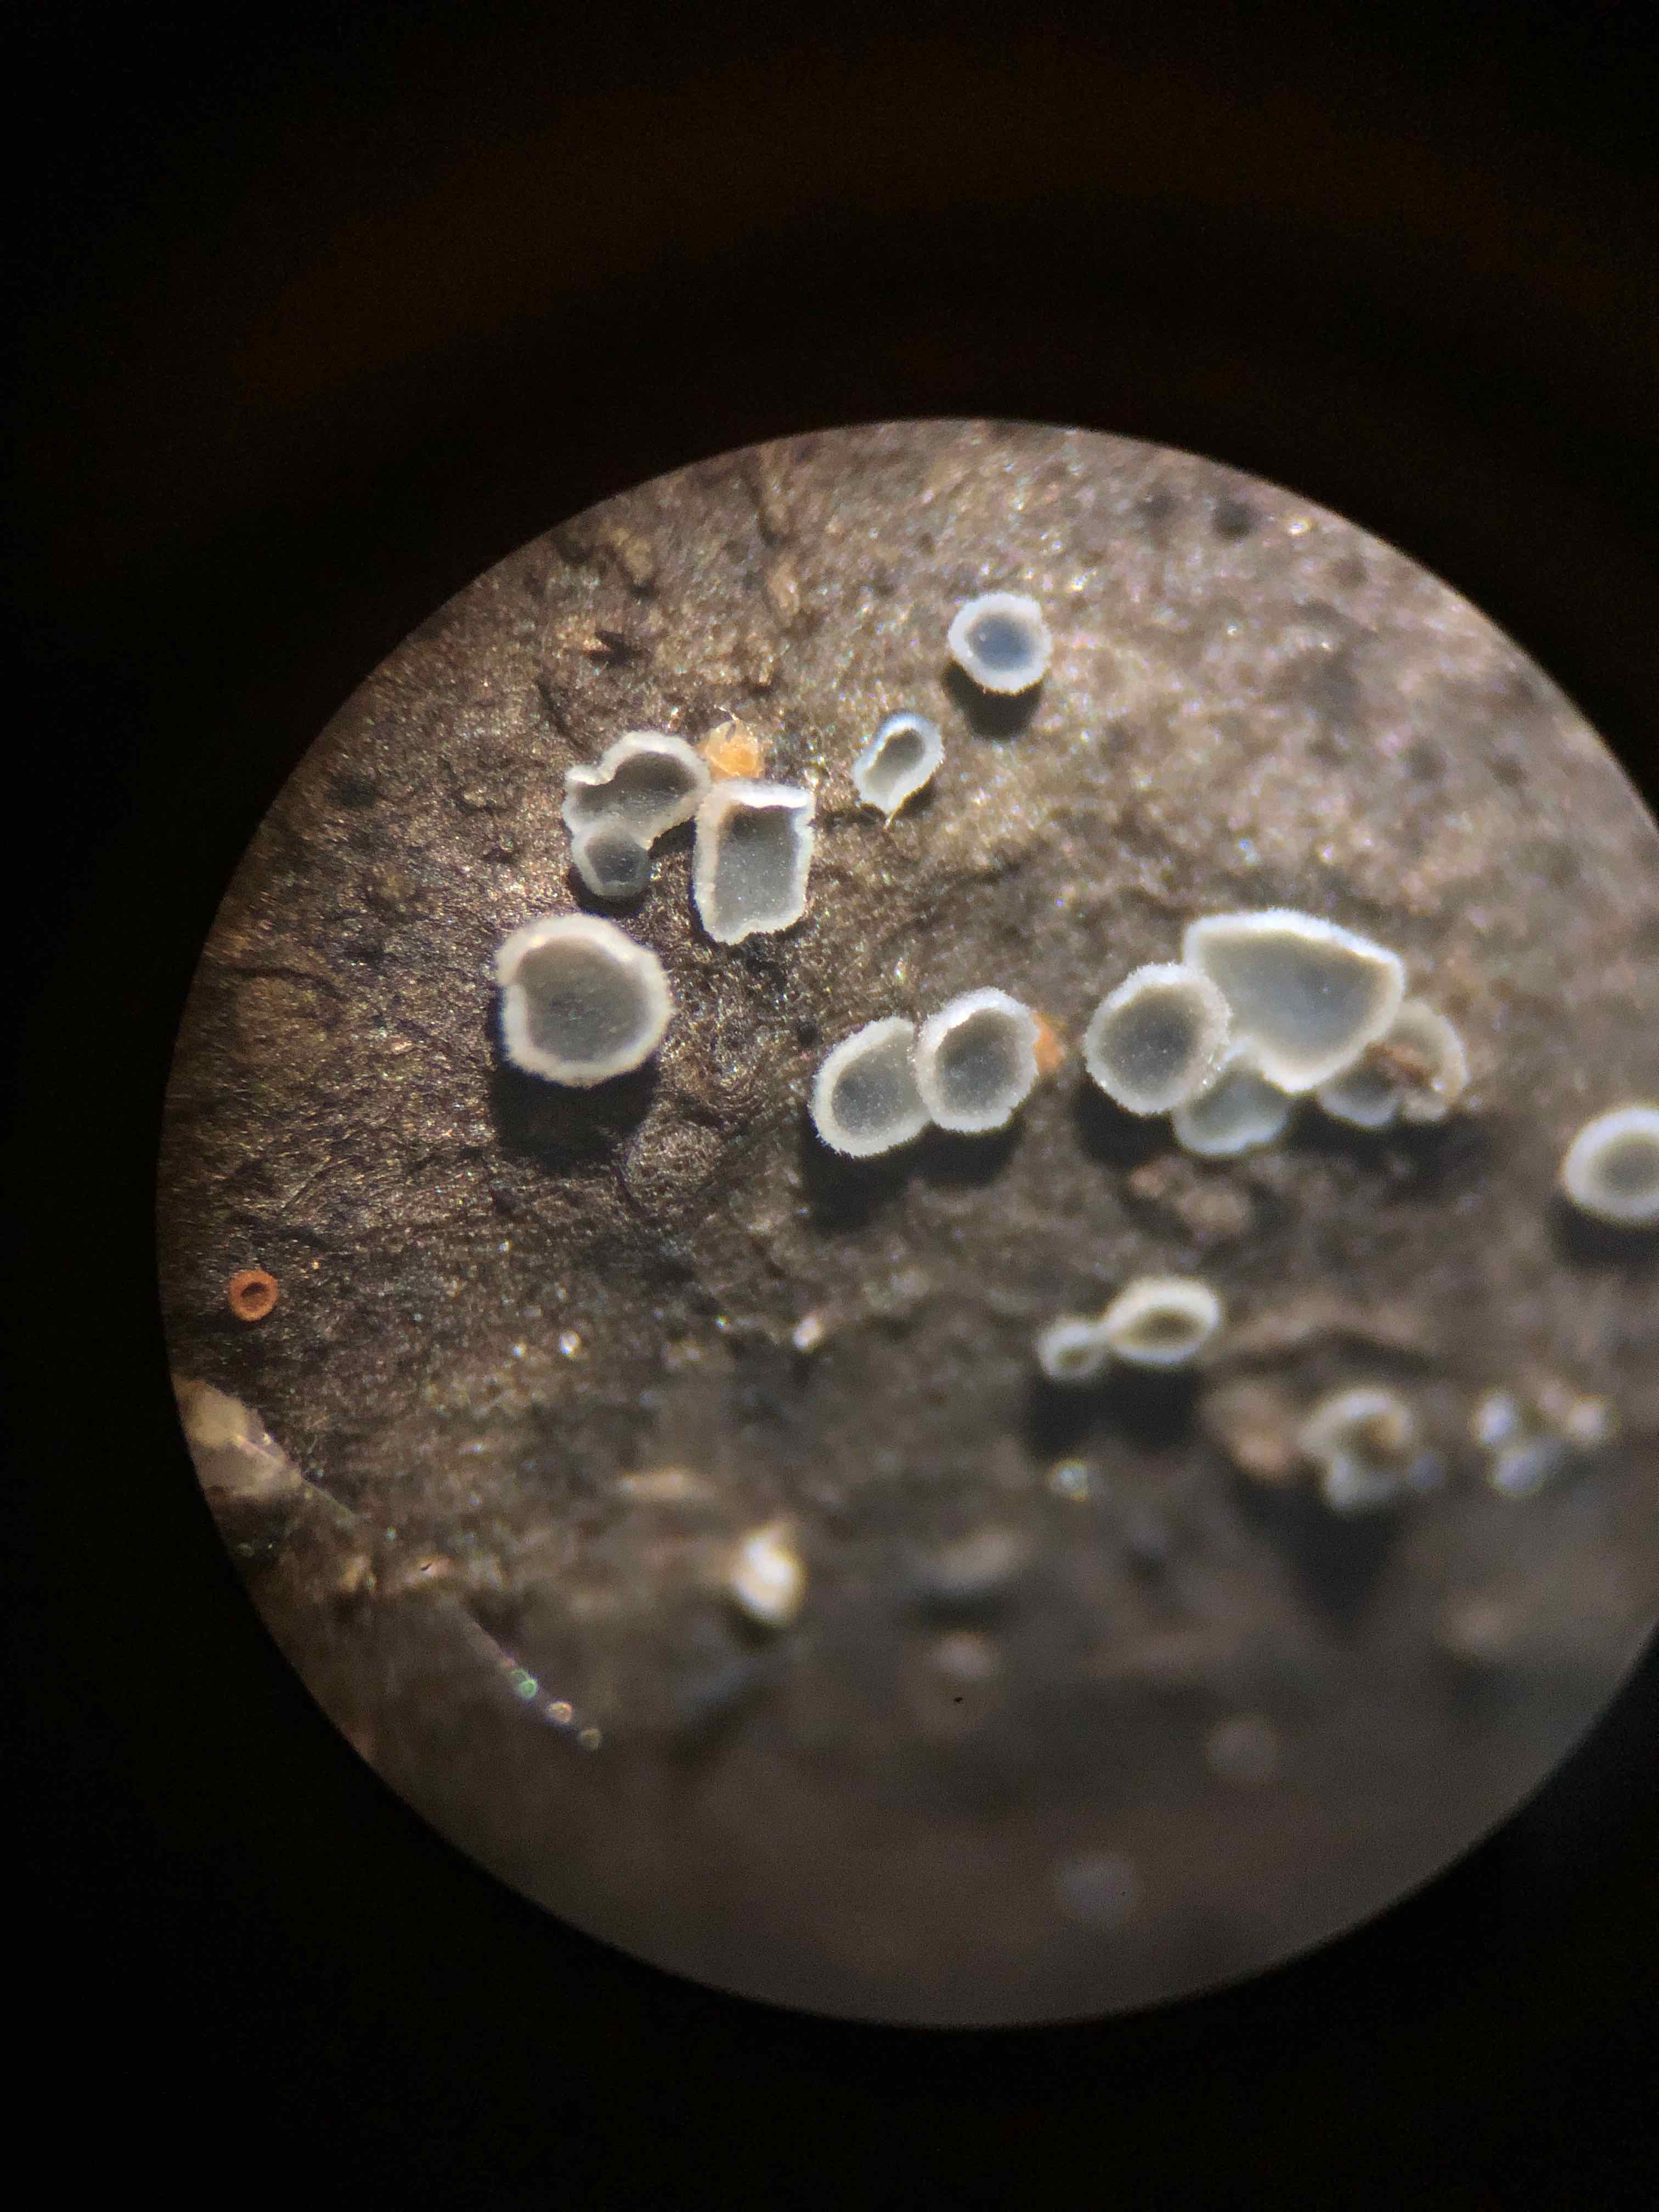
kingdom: Fungi
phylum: Ascomycota
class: Leotiomycetes
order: Helotiales
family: Mollisiaceae
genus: Mollisia
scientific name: Mollisia
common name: gråskive
